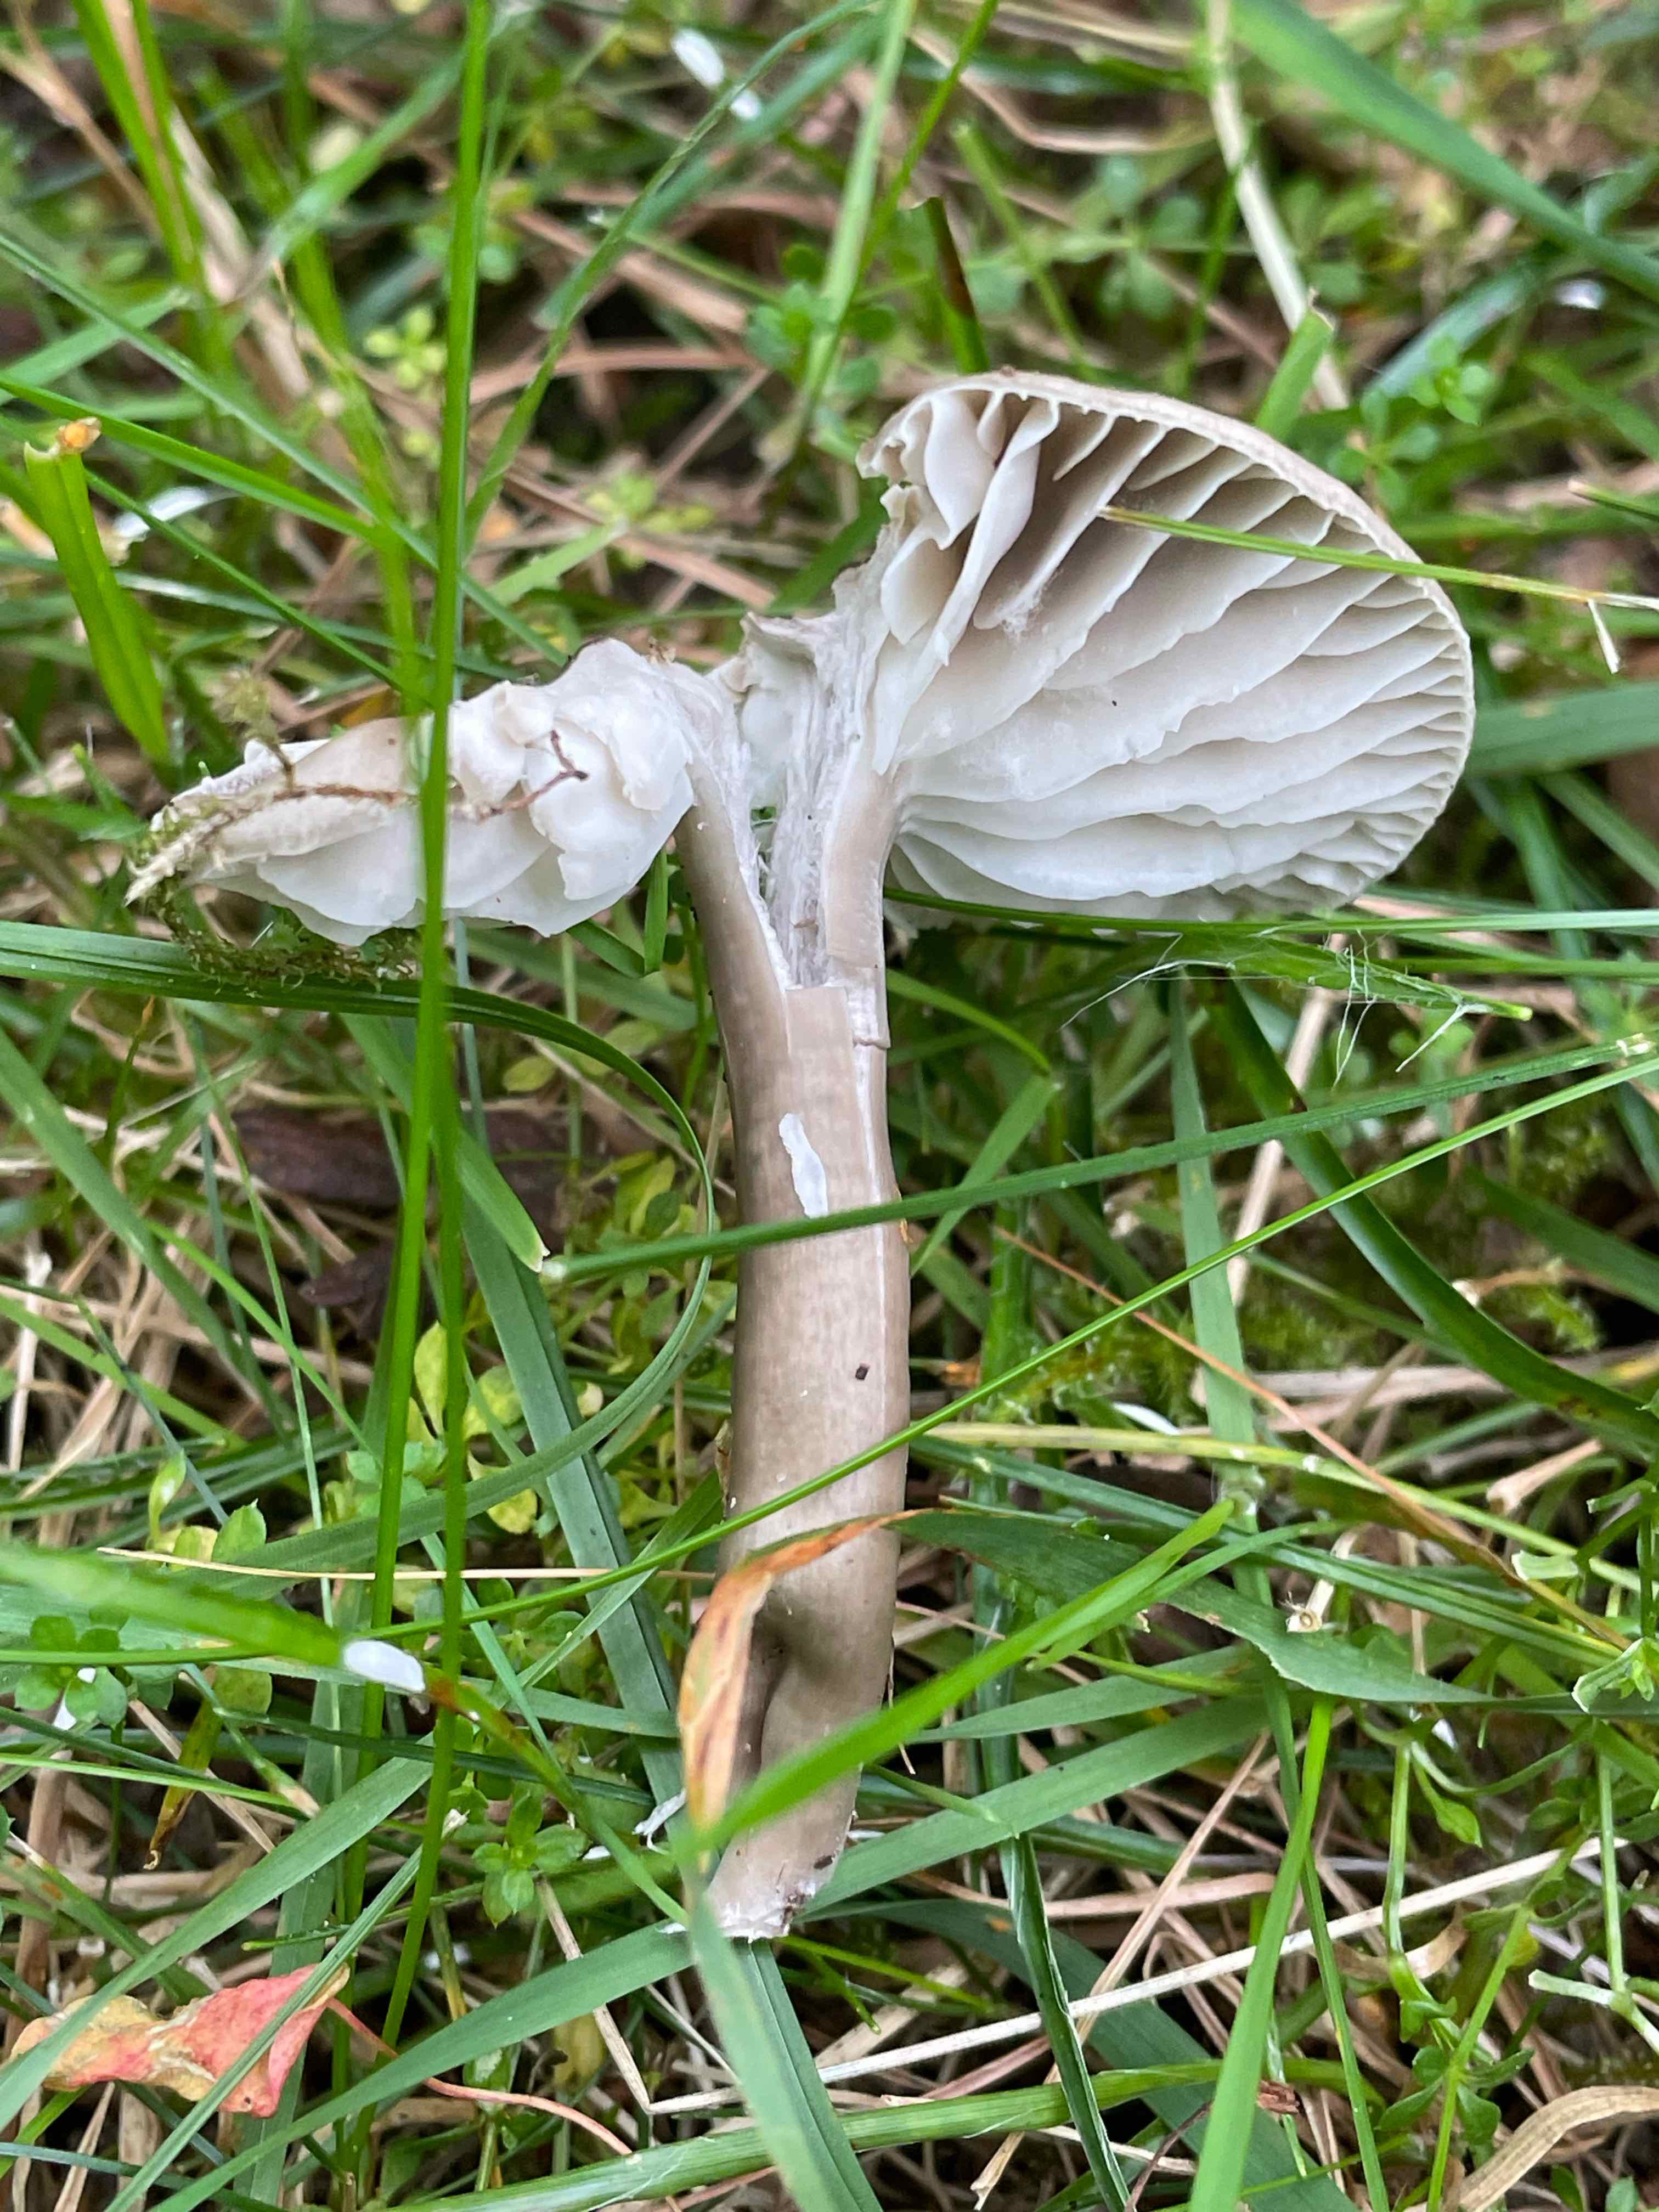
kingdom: Fungi
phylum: Basidiomycota
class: Agaricomycetes
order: Agaricales
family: Hygrophoraceae
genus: Gliophorus
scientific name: Gliophorus irrigatus
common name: slimet vokshat
